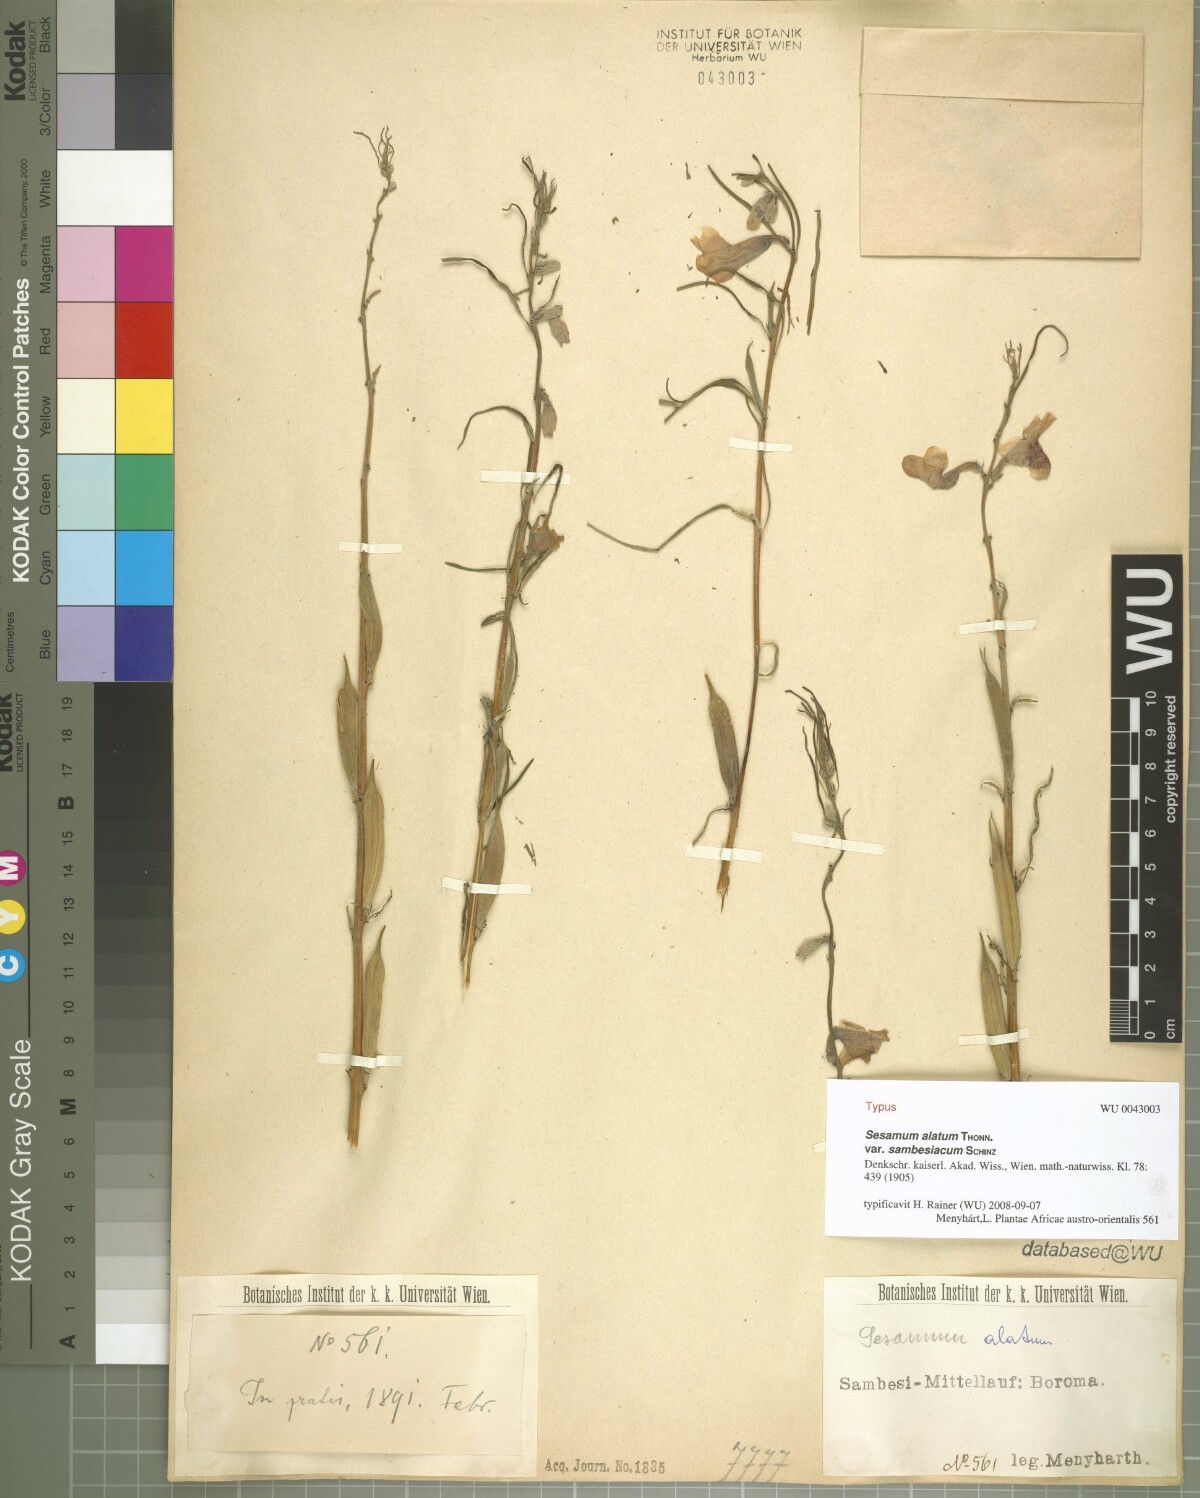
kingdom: Plantae
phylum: Tracheophyta
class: Magnoliopsida
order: Lamiales
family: Pedaliaceae
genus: Sesamum
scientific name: Sesamum alatum
